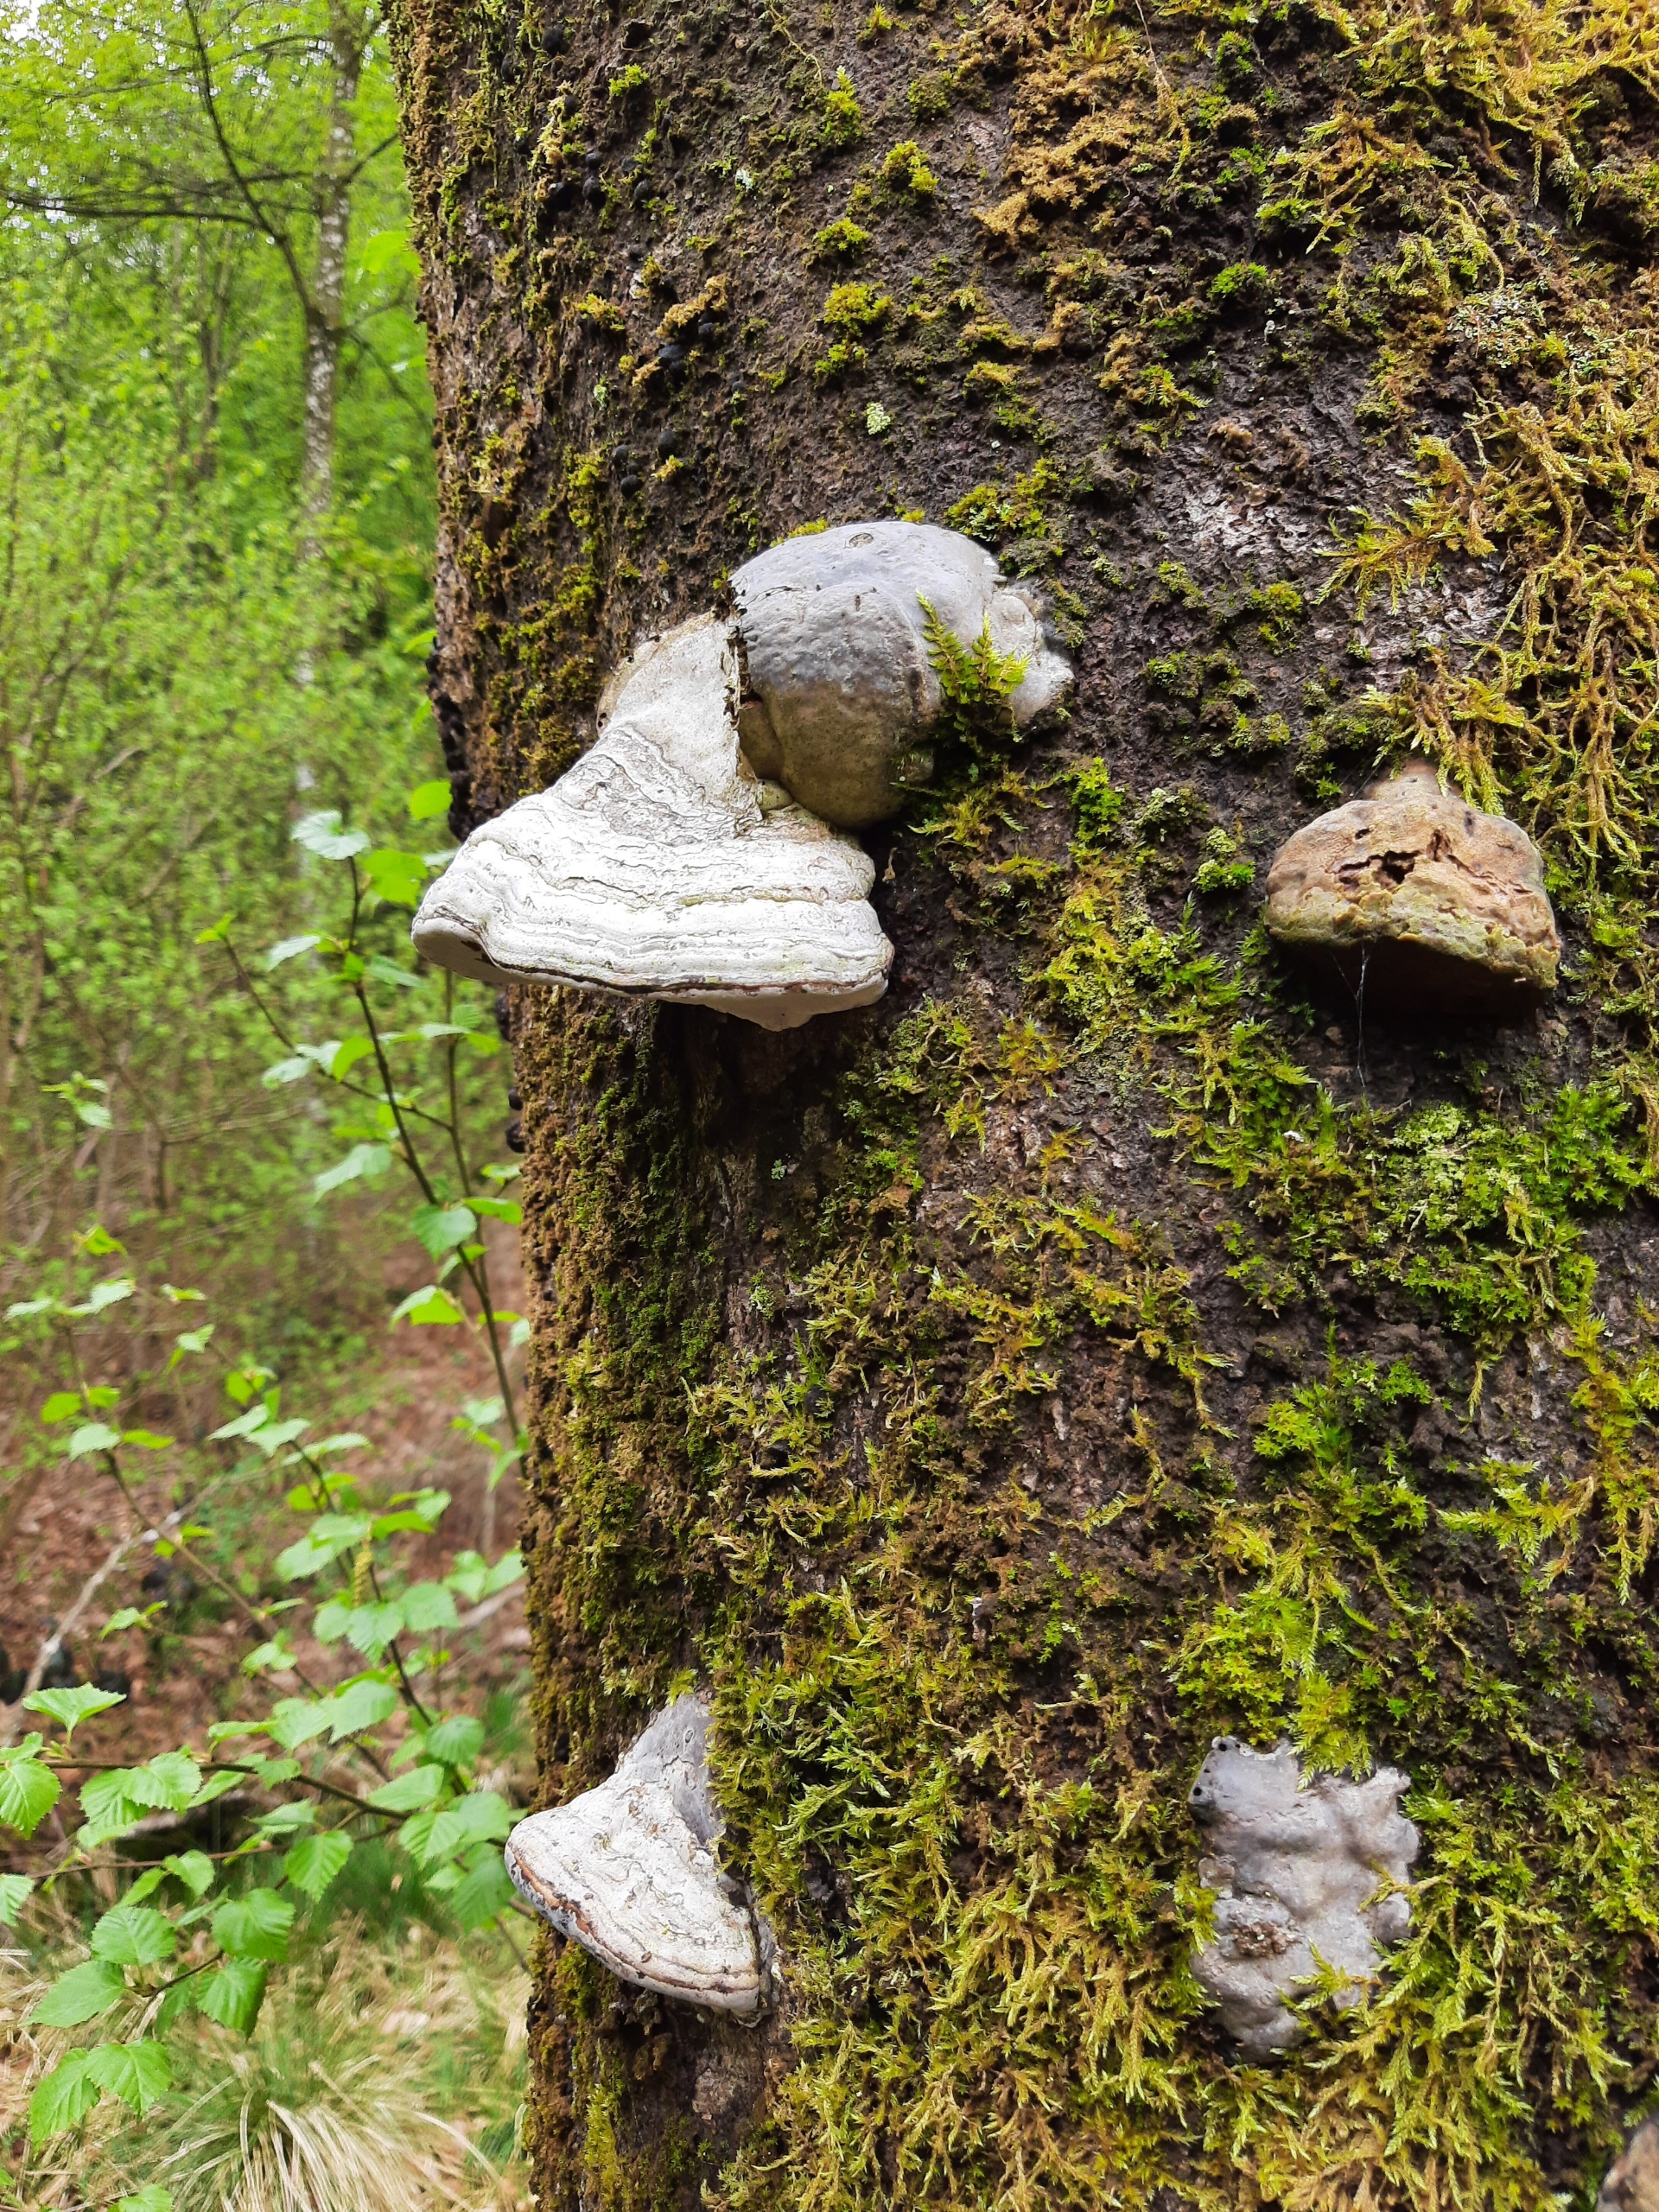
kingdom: Fungi
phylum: Basidiomycota
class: Agaricomycetes
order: Polyporales
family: Polyporaceae
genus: Fomes
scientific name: Fomes fomentarius
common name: Tøndersvamp
